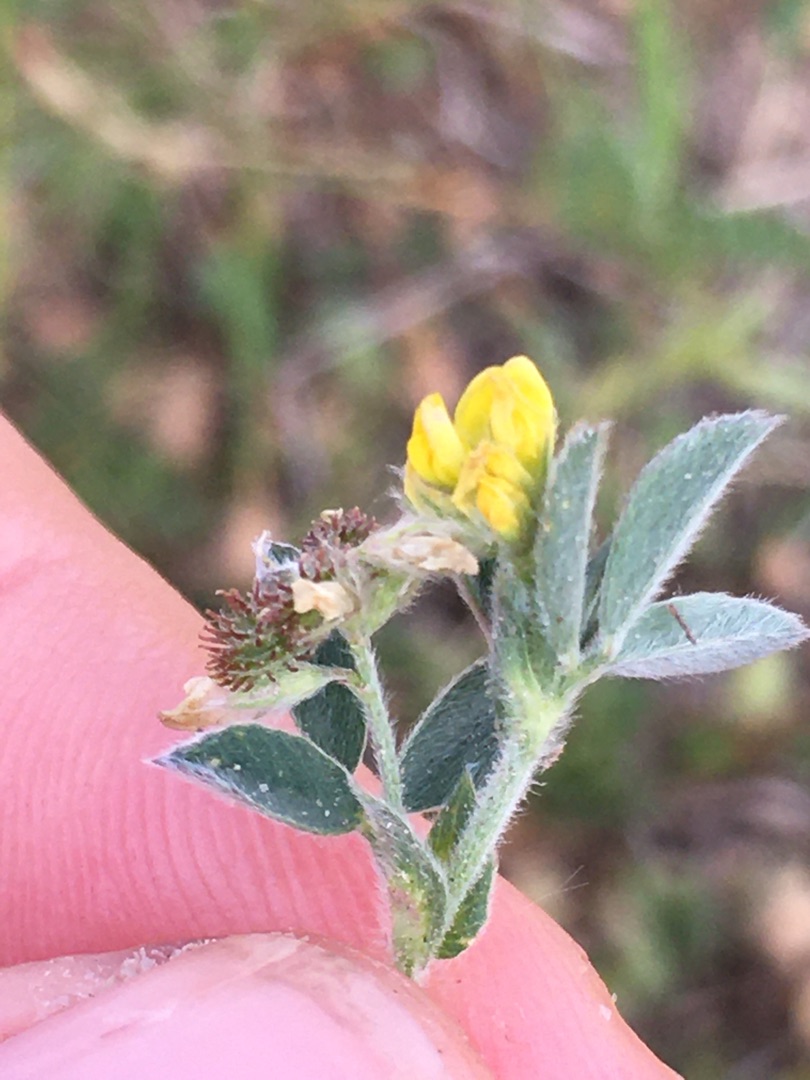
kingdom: Plantae
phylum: Tracheophyta
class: Magnoliopsida
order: Fabales
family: Fabaceae
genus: Medicago
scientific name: Medicago minima
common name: Liden sneglebælg
